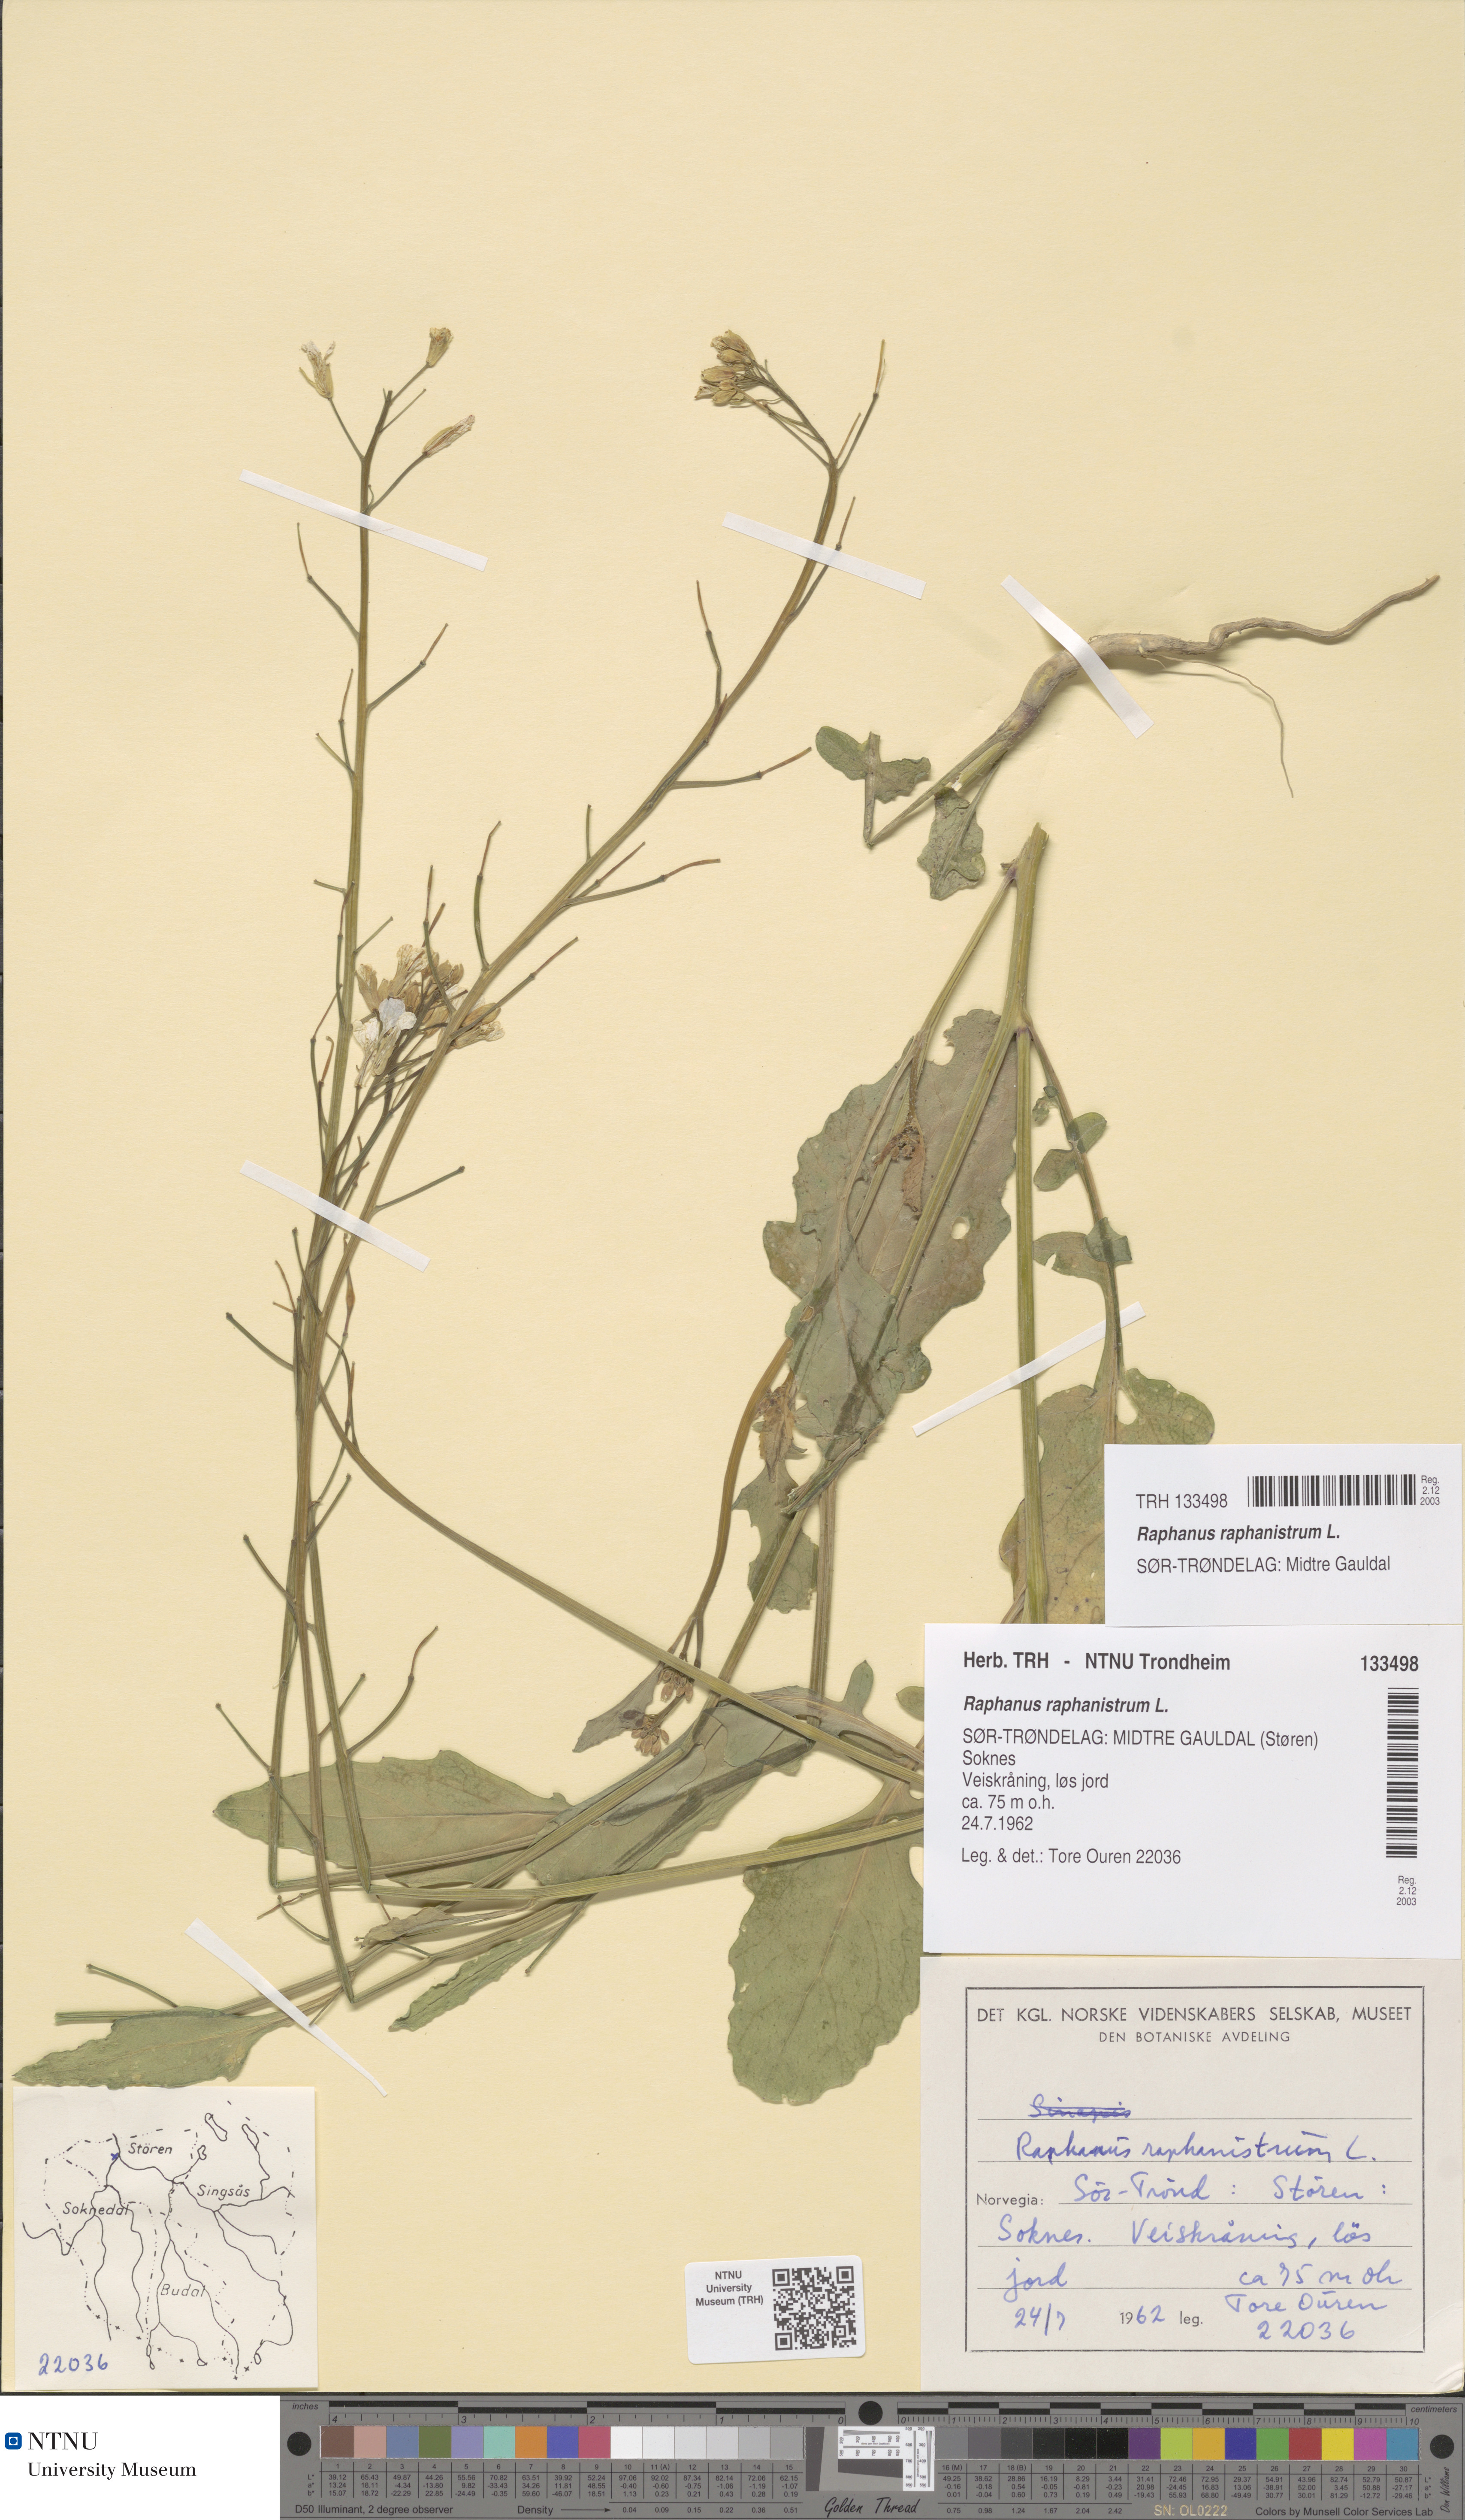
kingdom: Plantae
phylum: Tracheophyta
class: Magnoliopsida
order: Brassicales
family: Brassicaceae
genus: Raphanus
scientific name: Raphanus raphanistrum
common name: Wild radish
